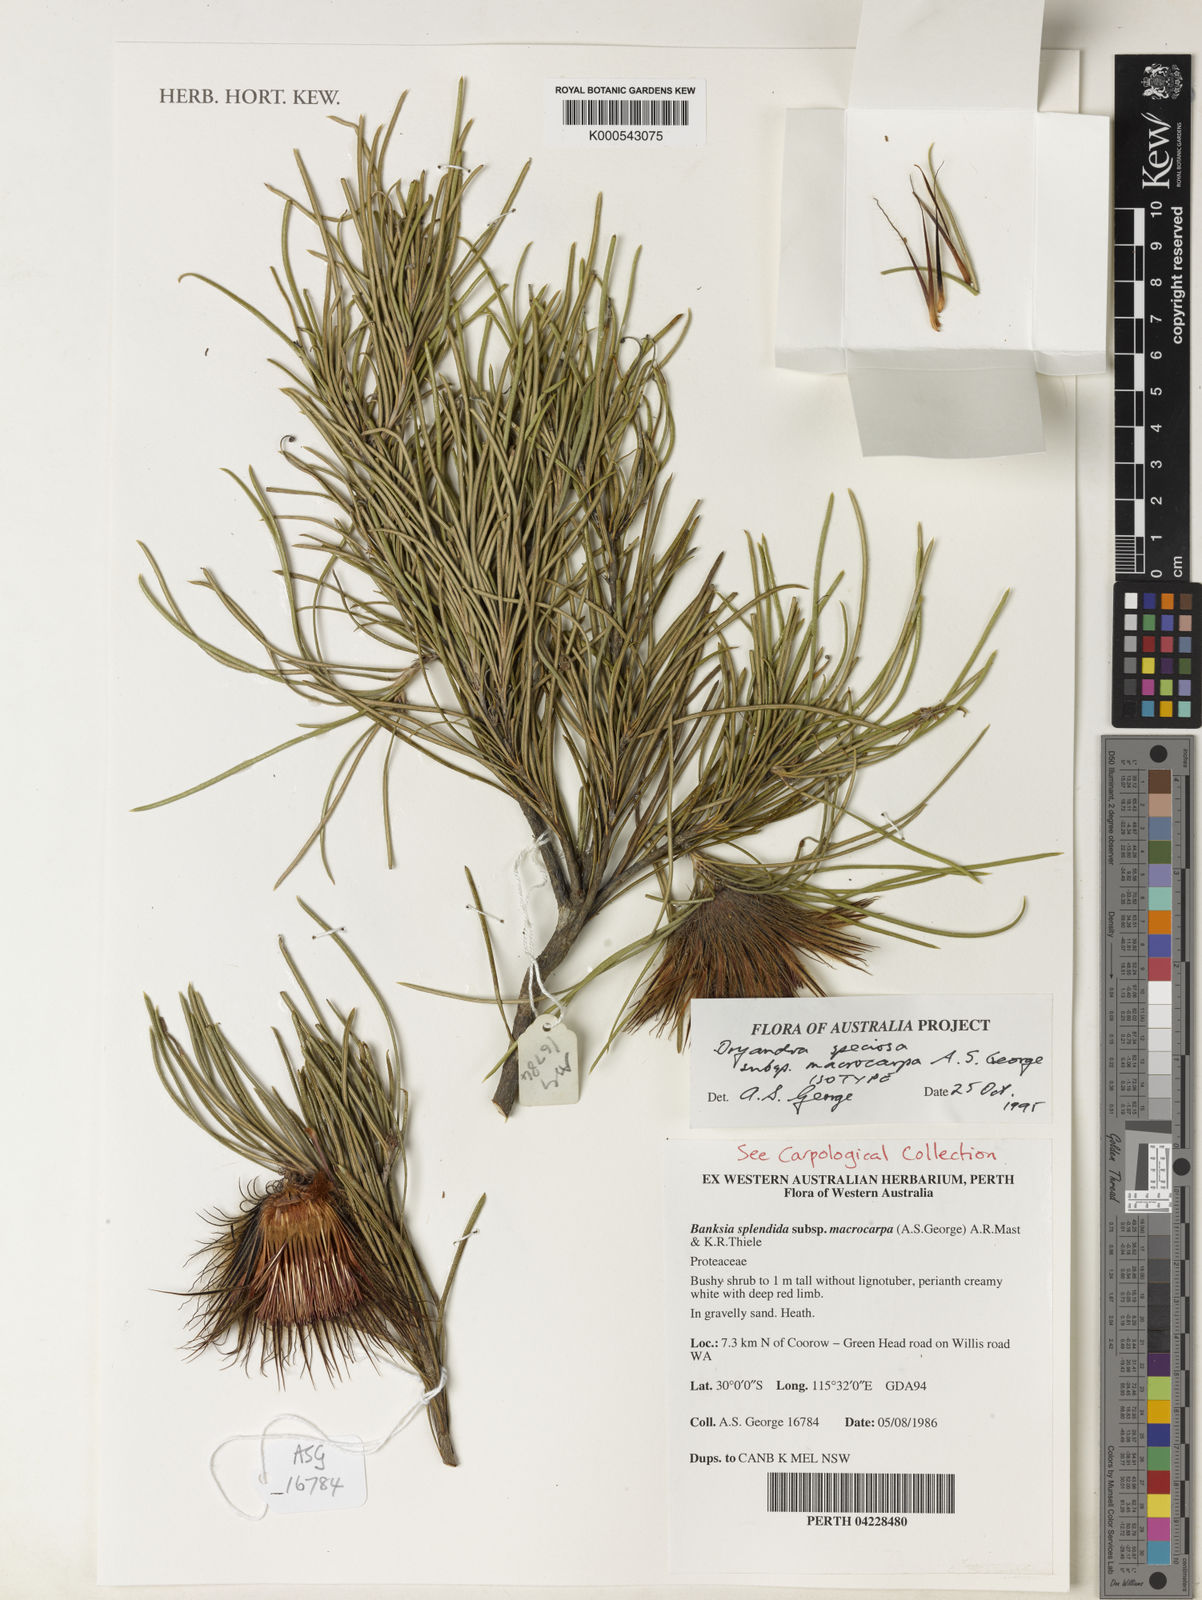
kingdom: Plantae
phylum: Tracheophyta
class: Magnoliopsida
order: Proteales
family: Proteaceae
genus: Banksia
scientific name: Banksia splendida
